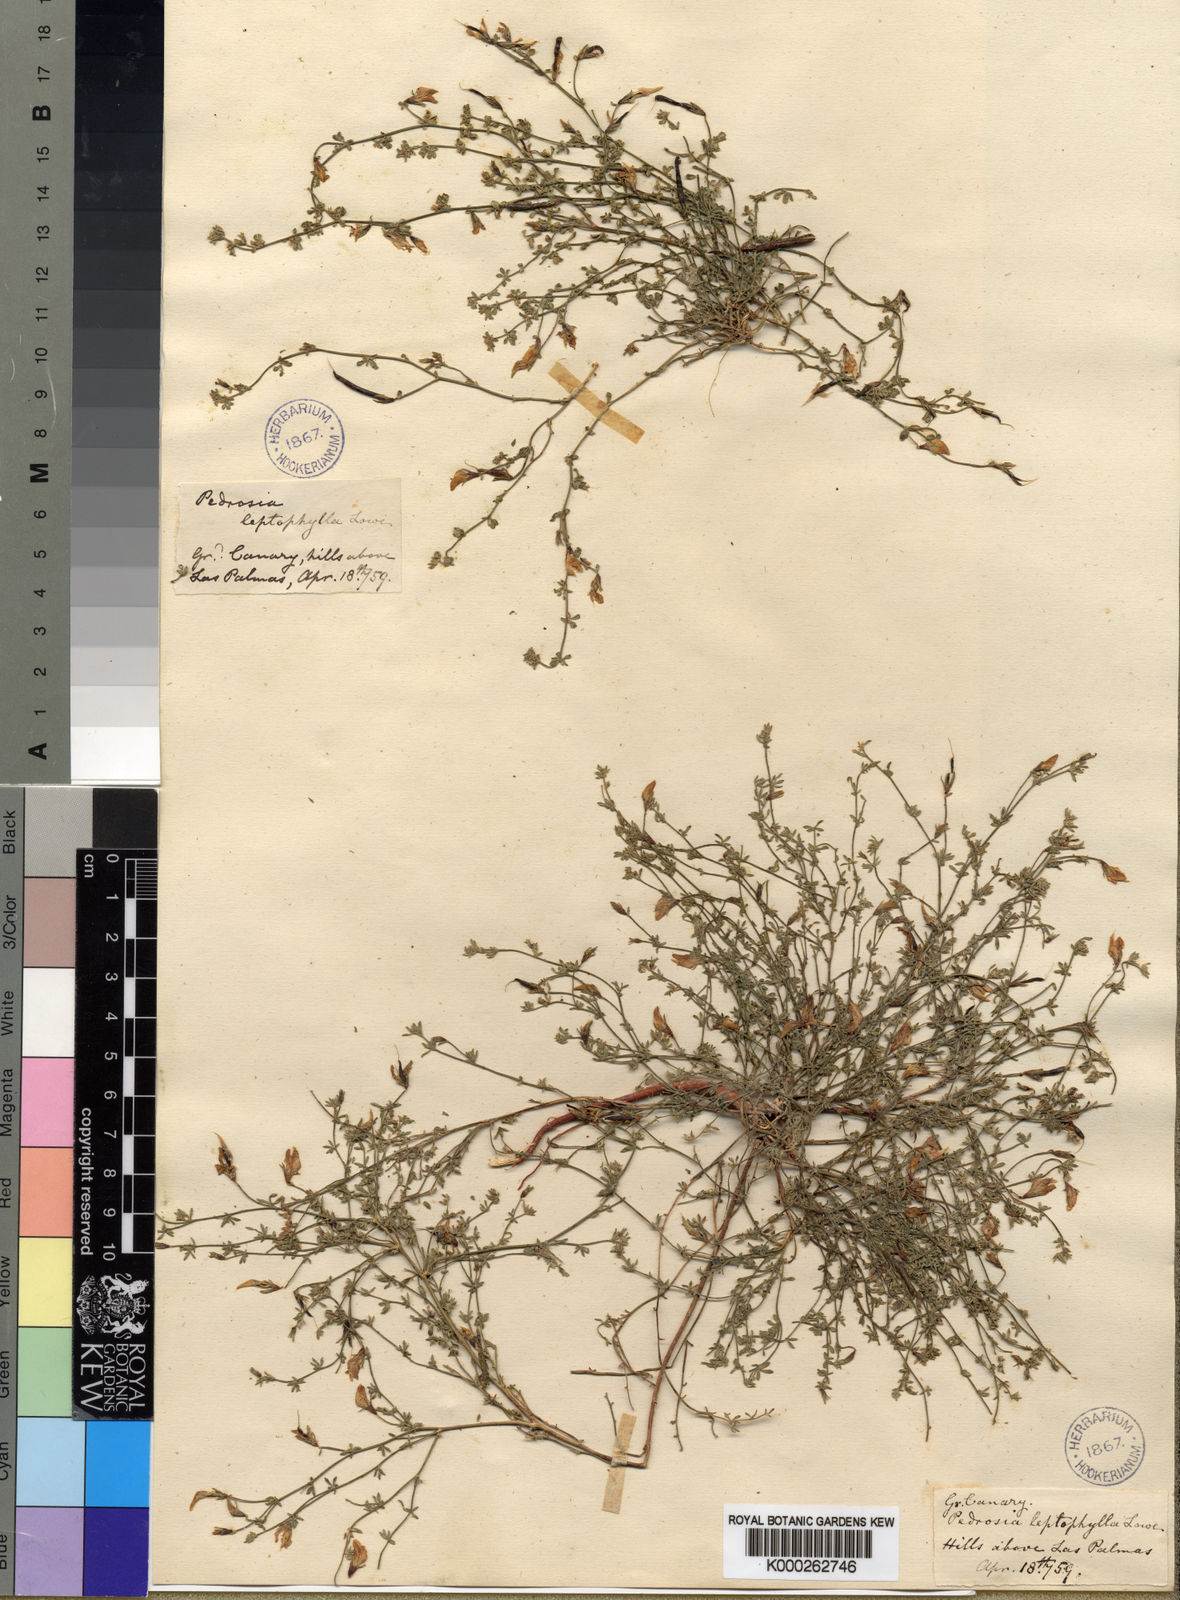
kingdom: Plantae
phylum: Tracheophyta
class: Magnoliopsida
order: Fabales
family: Fabaceae
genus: Lotus
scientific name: Lotus glaucus
